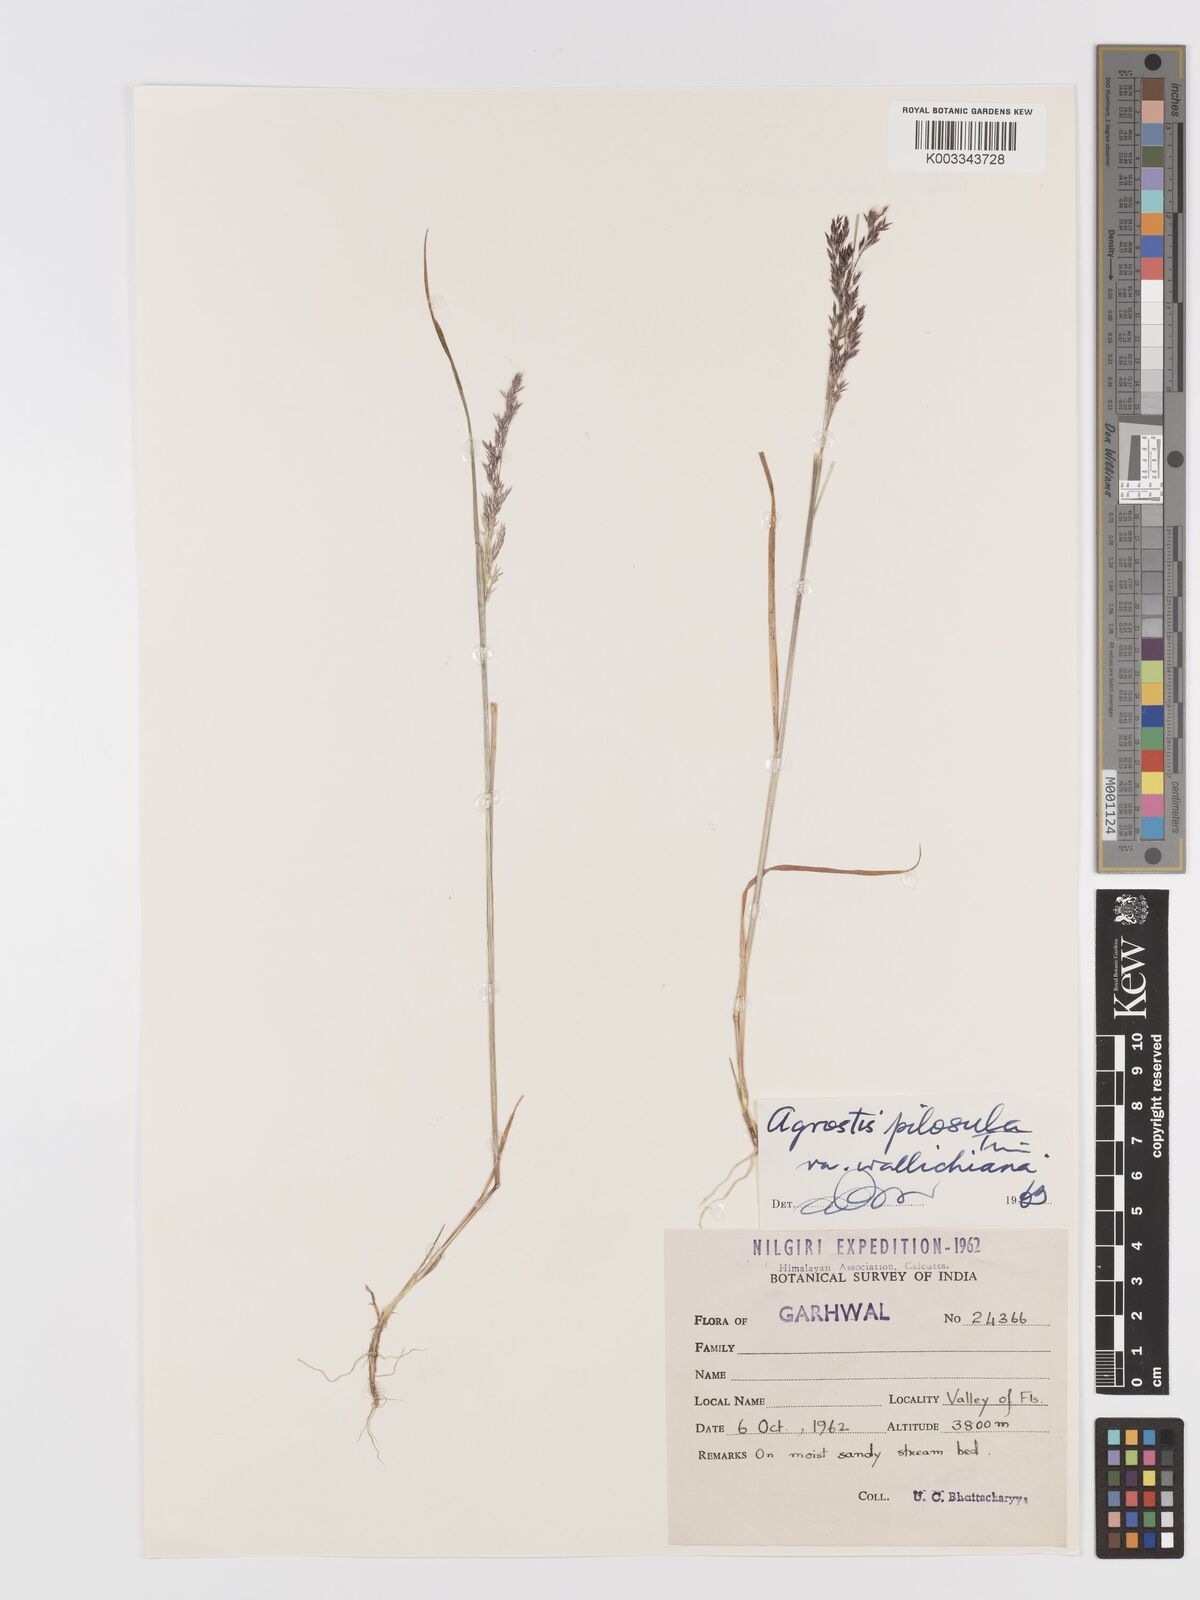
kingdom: Plantae
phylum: Tracheophyta
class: Liliopsida
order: Poales
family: Poaceae
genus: Agrostis
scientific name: Agrostis pilosula
